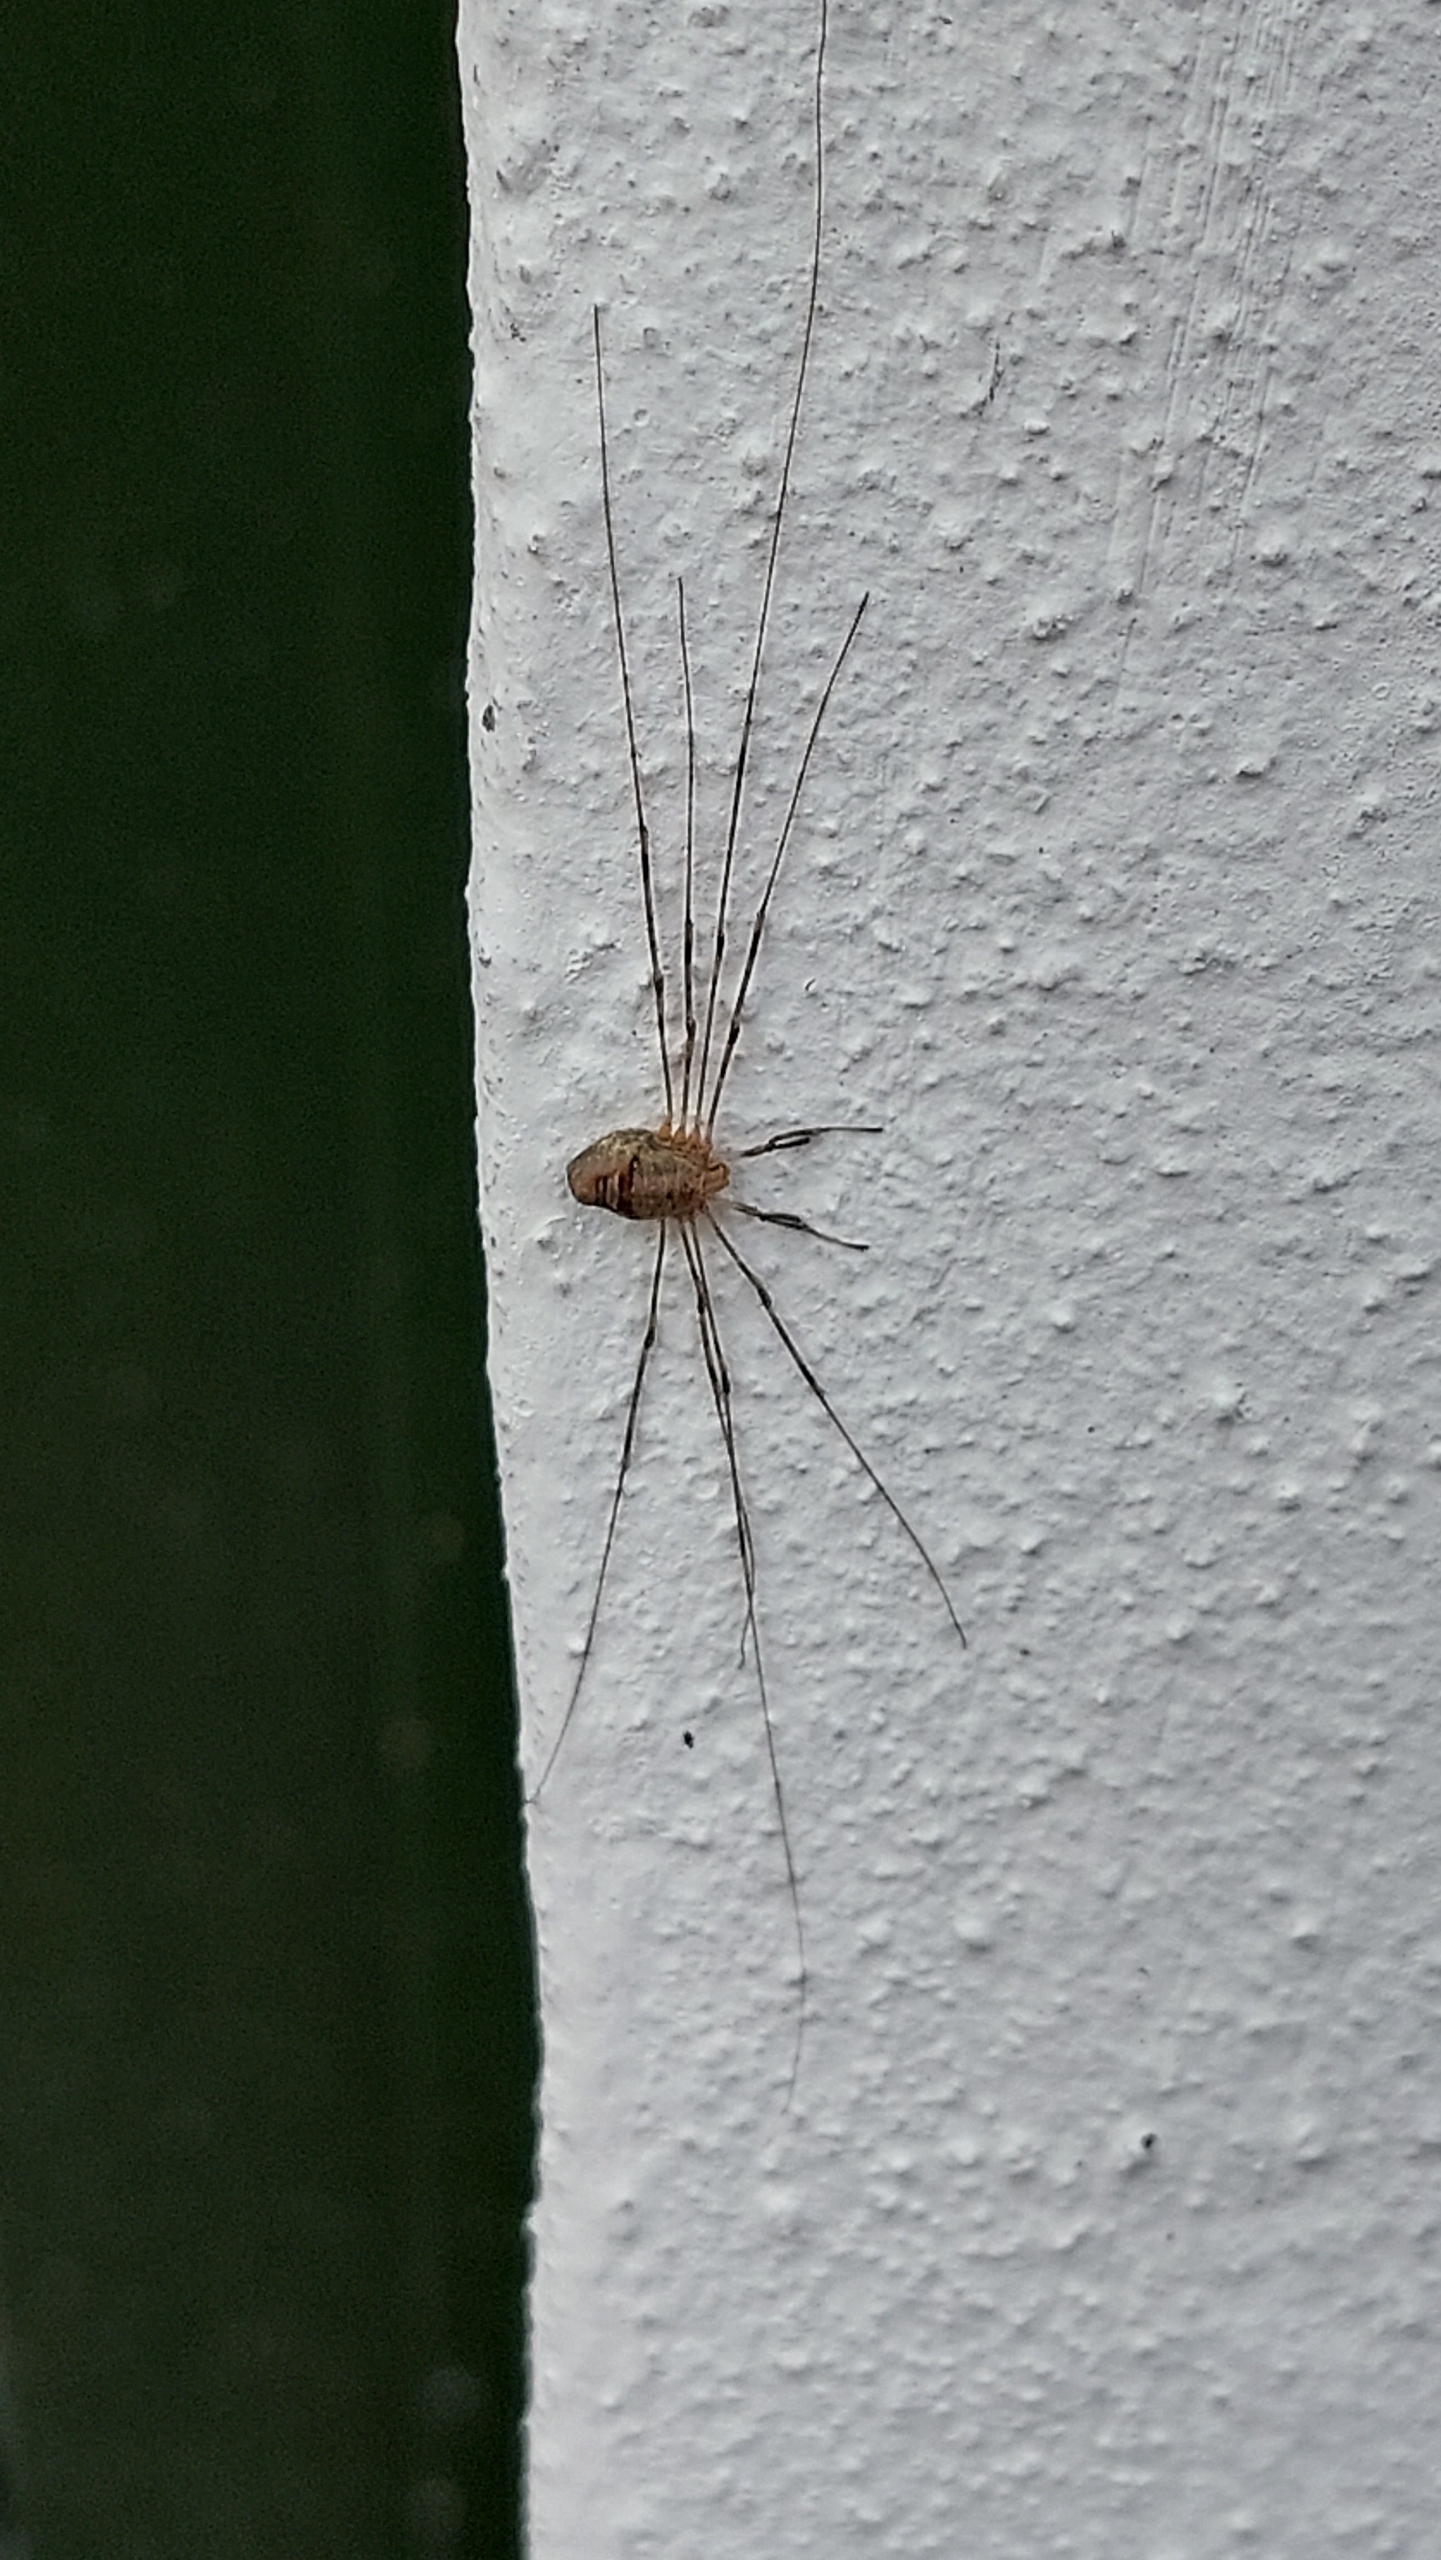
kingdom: Animalia
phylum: Arthropoda
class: Arachnida
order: Opiliones
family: Phalangiidae
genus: Dicranopalpus
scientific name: Dicranopalpus ramosus
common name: Gaffelmejer
